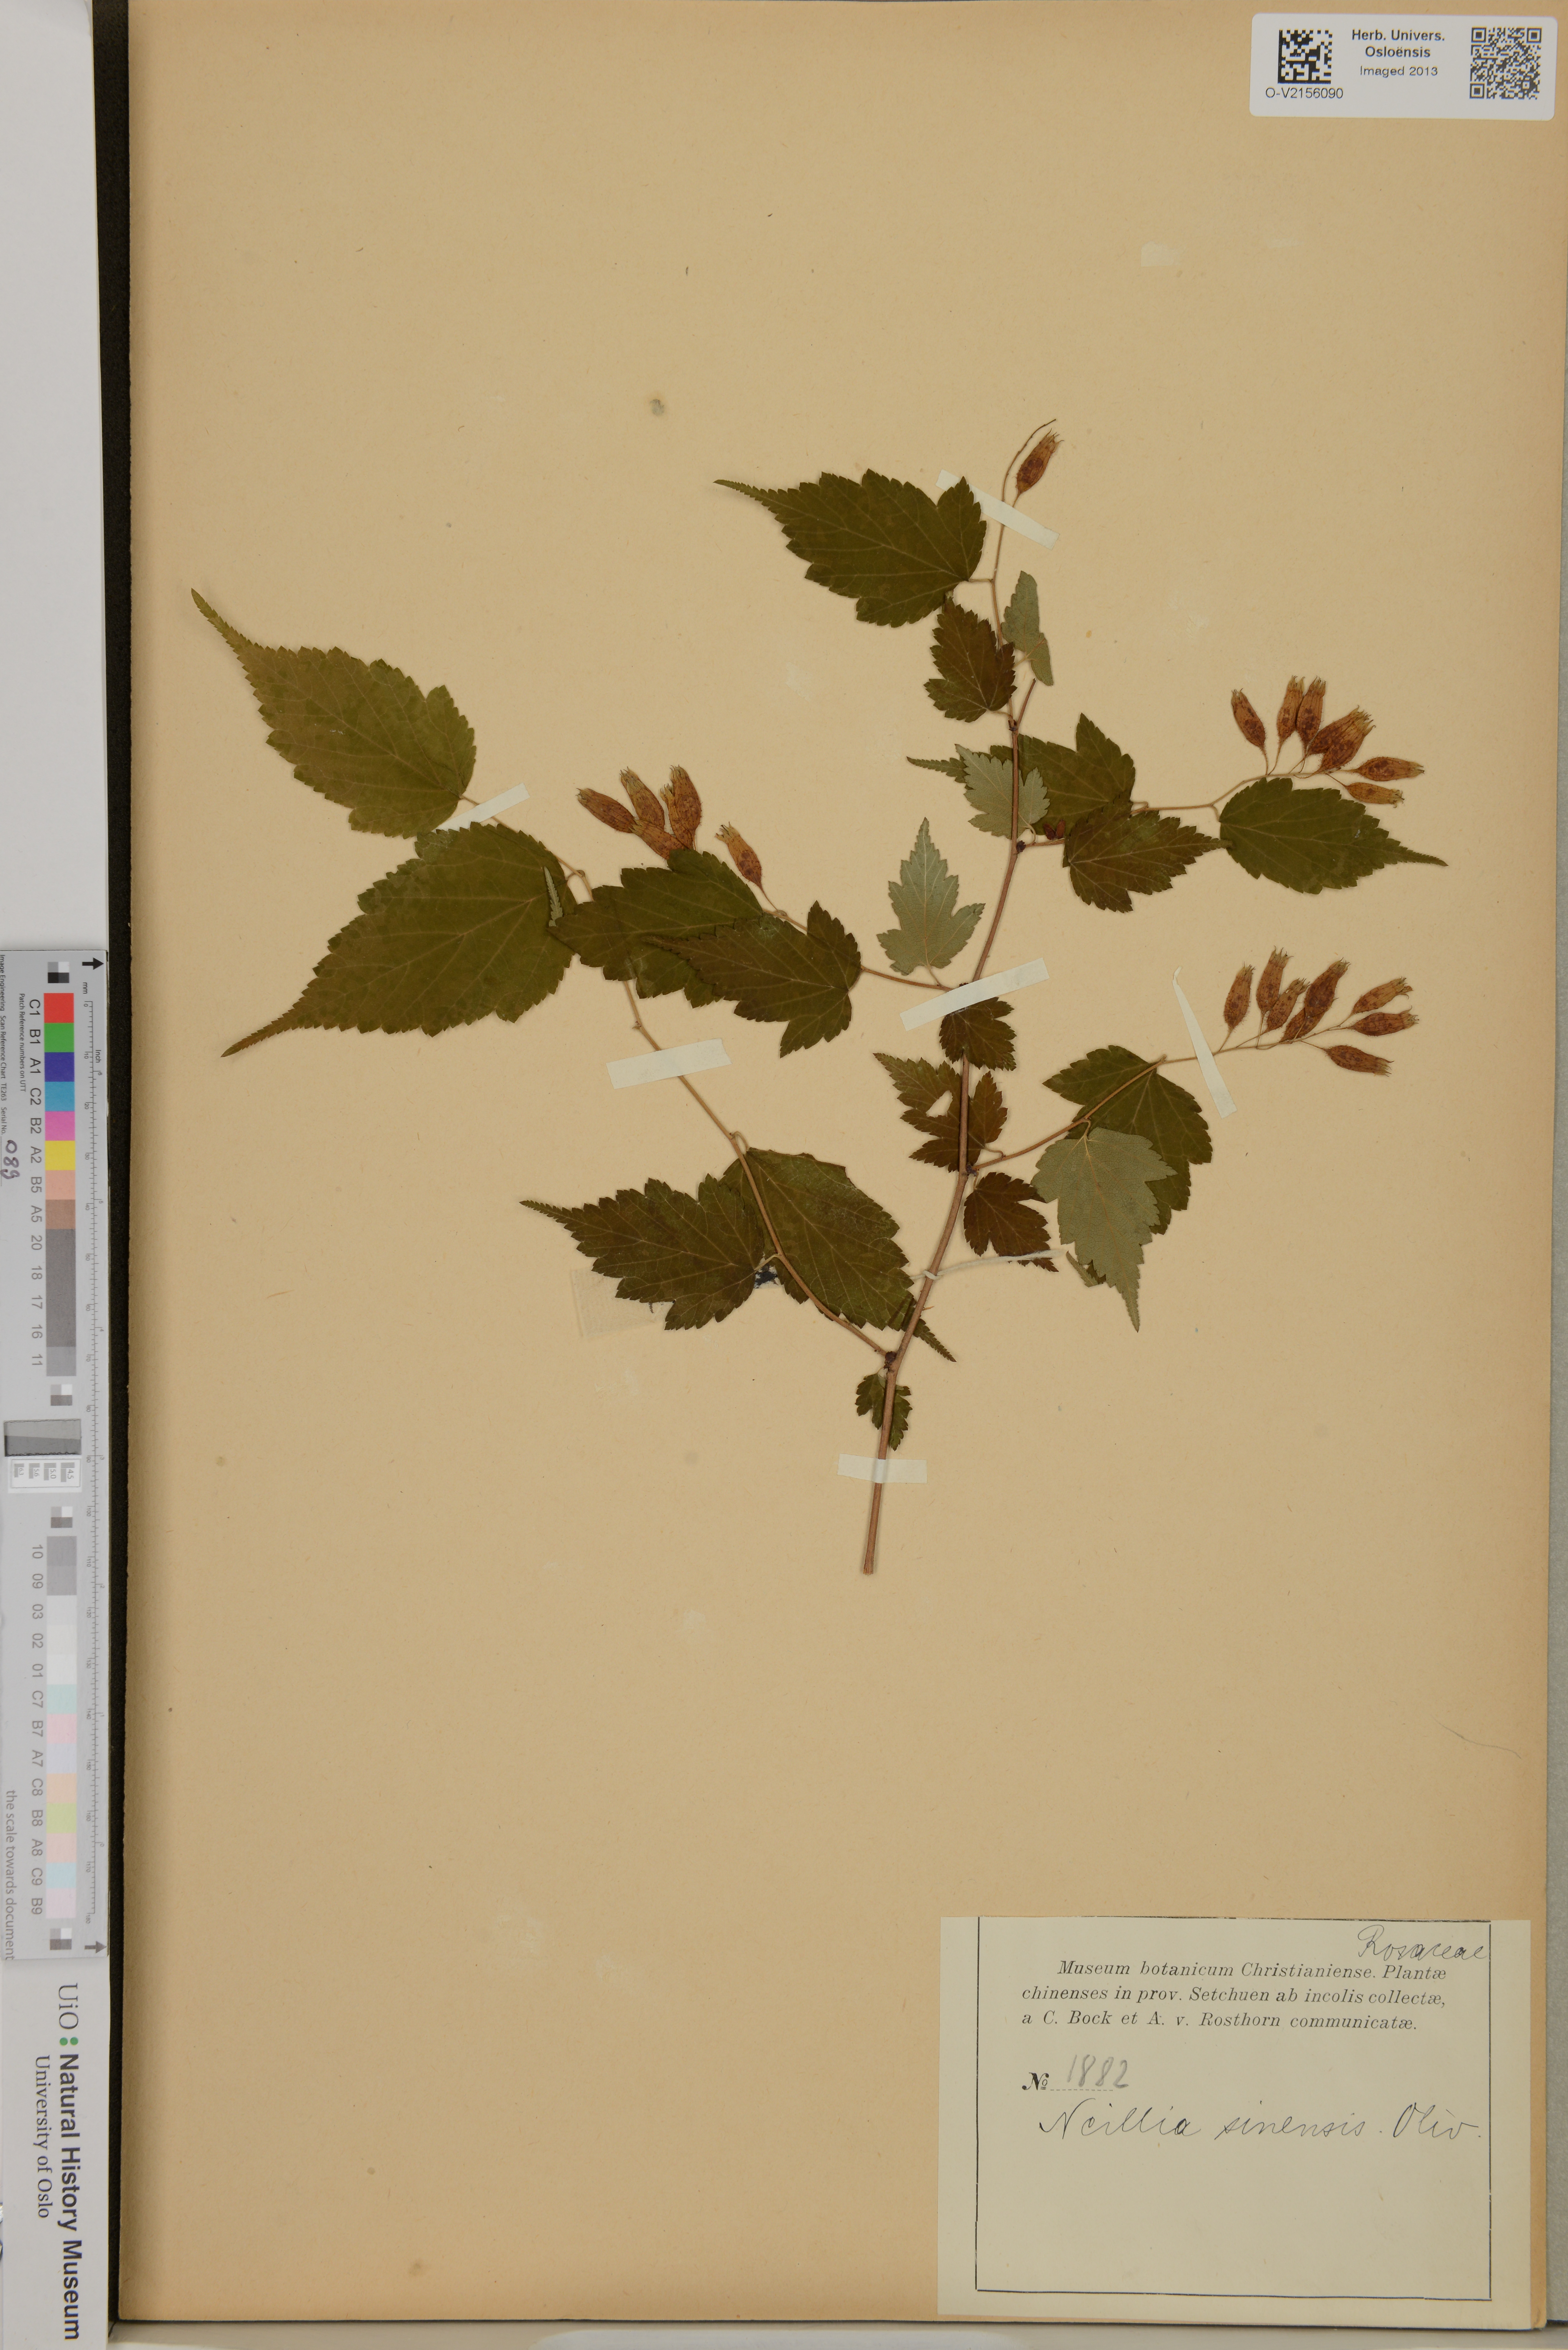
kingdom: Plantae
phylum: Tracheophyta
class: Magnoliopsida
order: Rosales
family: Rosaceae
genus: Neillia
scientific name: Neillia sinensis
